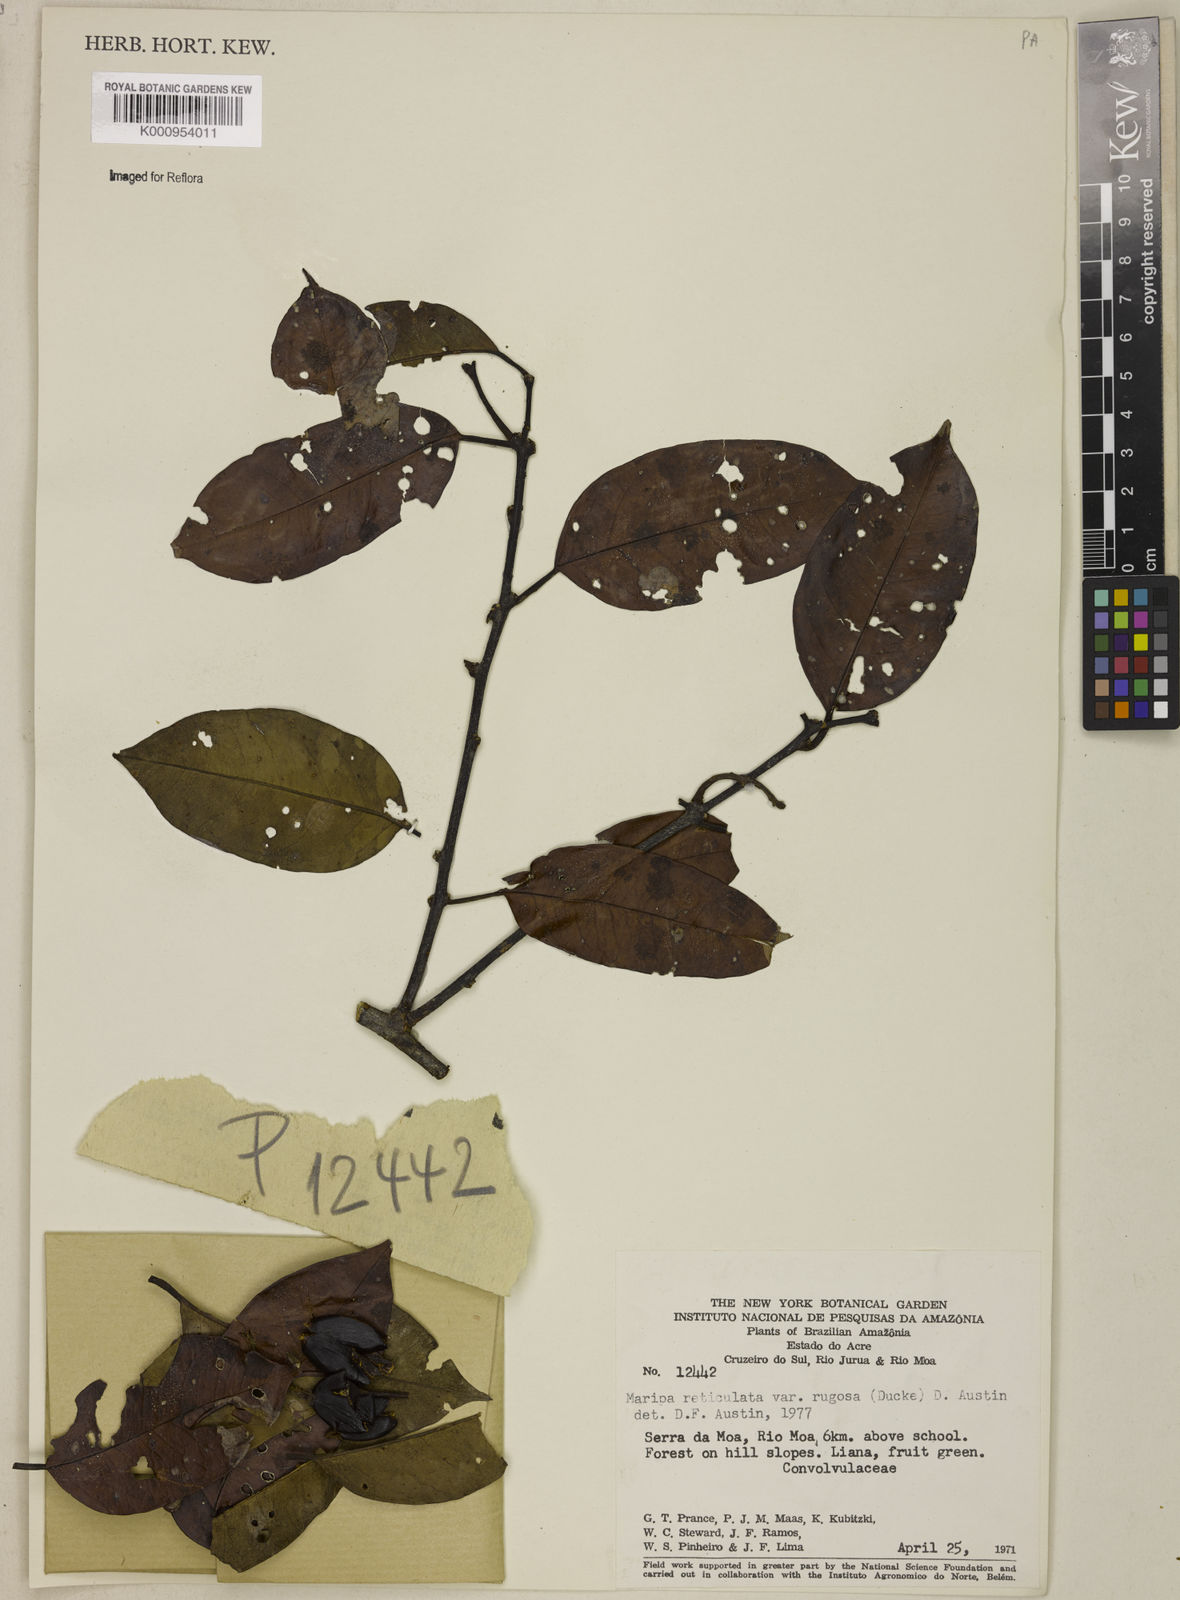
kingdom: Plantae
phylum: Tracheophyta
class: Magnoliopsida
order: Solanales
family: Convolvulaceae
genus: Maripa
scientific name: Maripa reticulata
